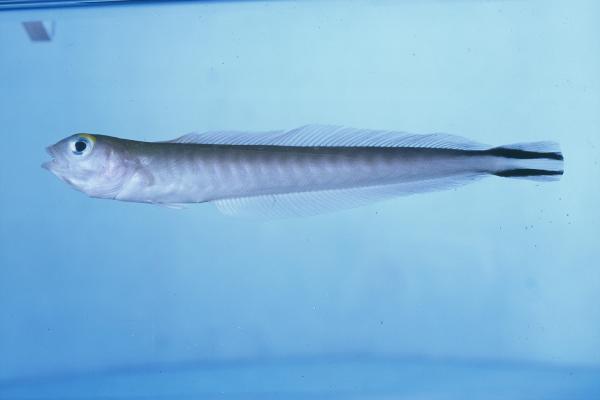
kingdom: Animalia
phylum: Chordata
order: Perciformes
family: Malacanthidae
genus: Malacanthus
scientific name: Malacanthus brevirostris
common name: Flagtail blanquillo
